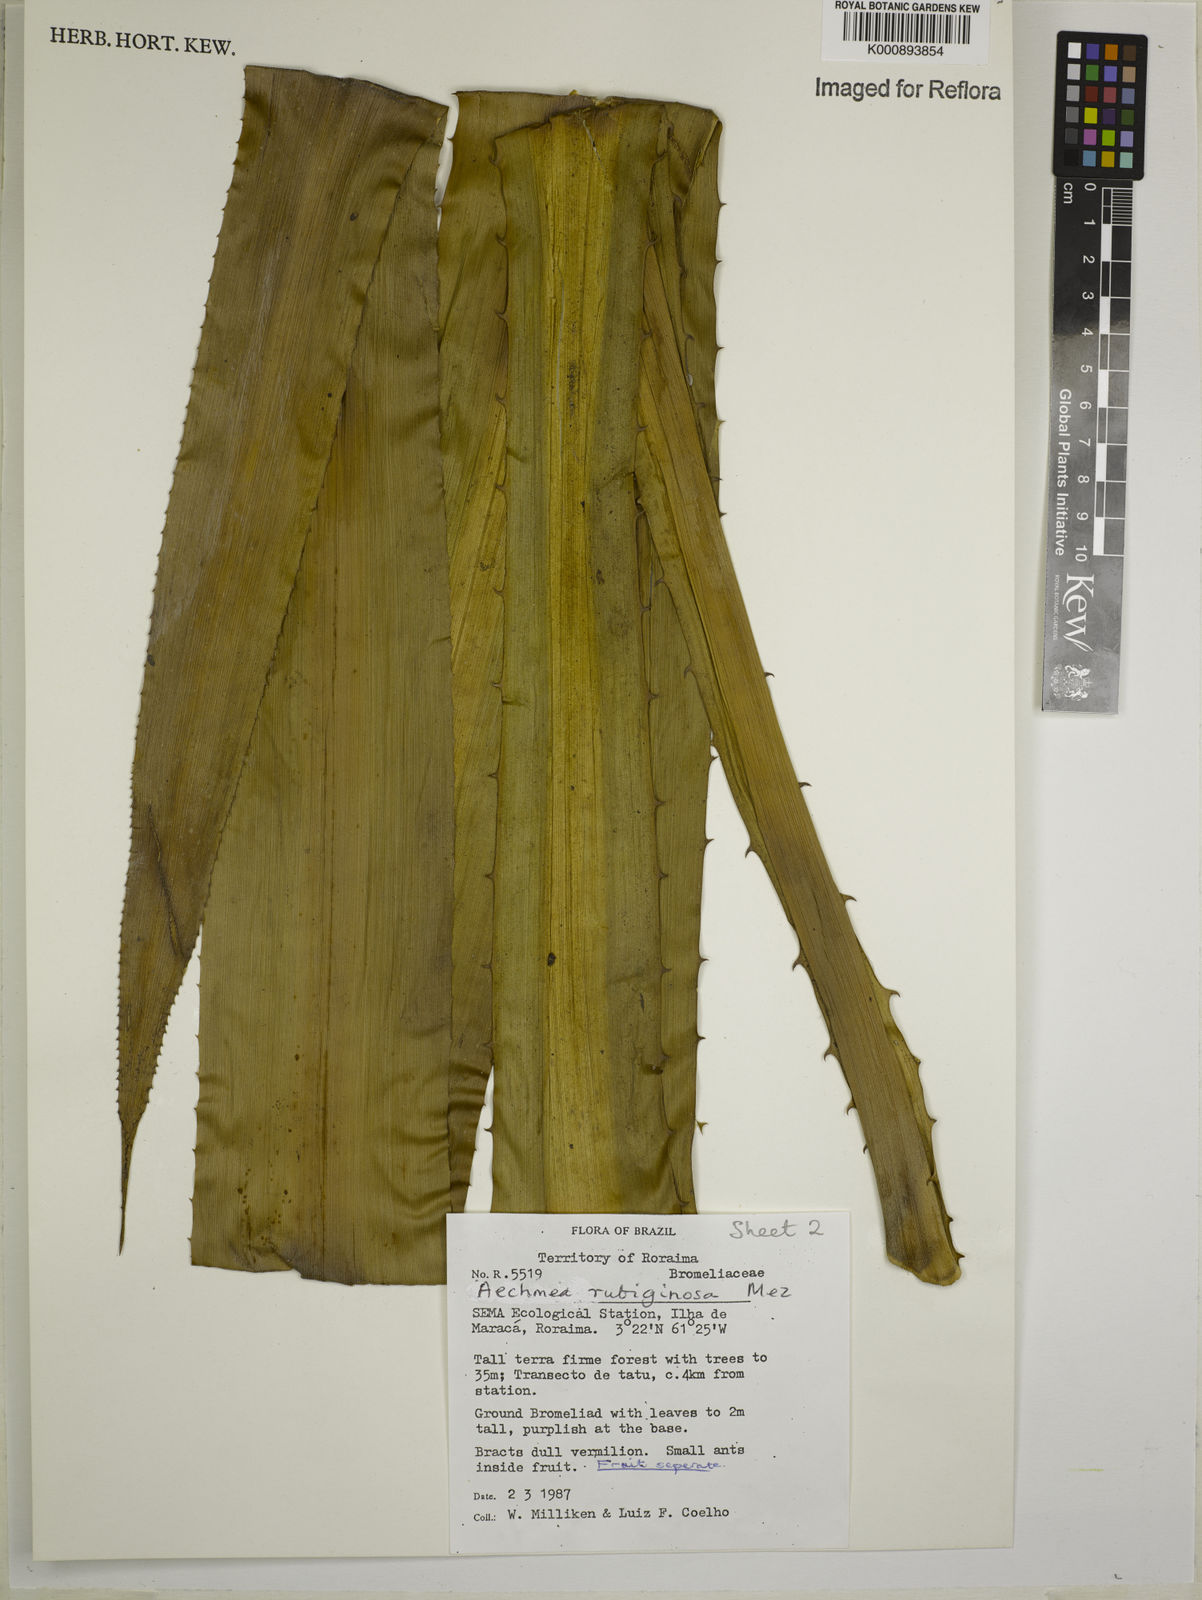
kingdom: Plantae
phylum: Tracheophyta
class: Liliopsida
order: Poales
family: Bromeliaceae
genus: Aechmea
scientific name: Aechmea rubiginosa
